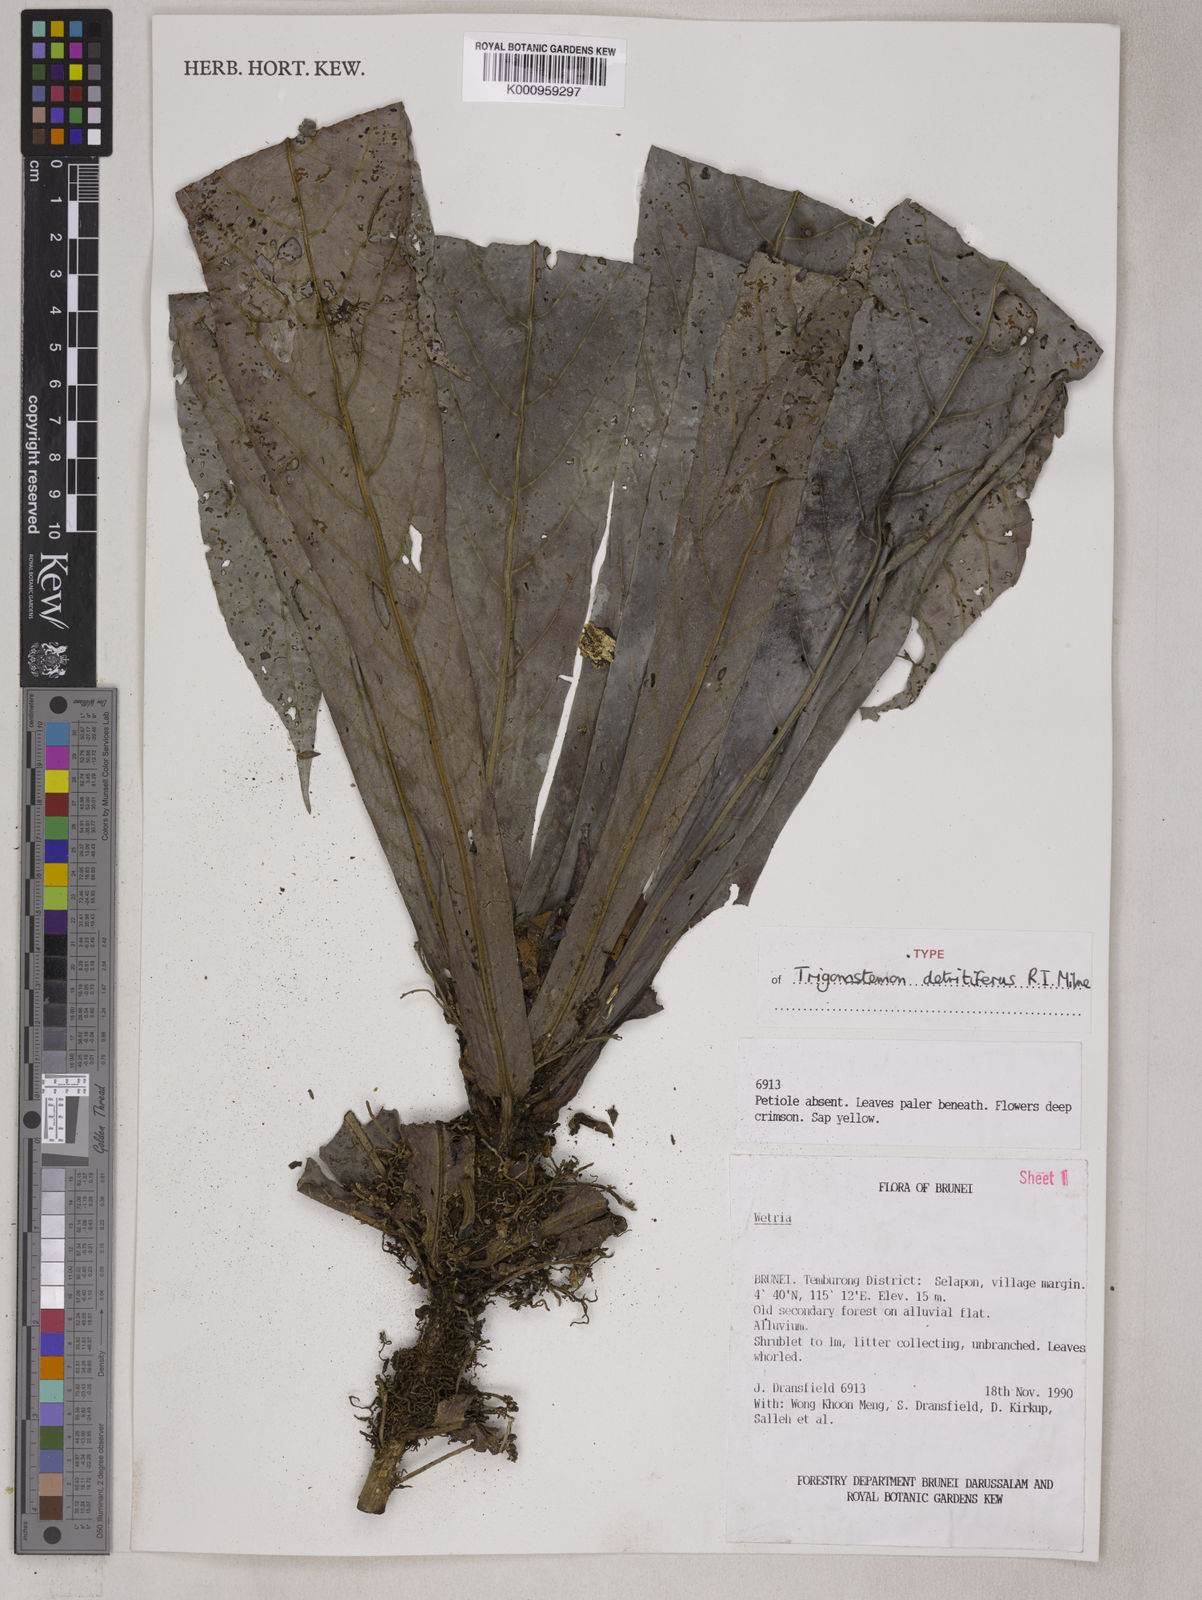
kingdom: Plantae
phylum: Tracheophyta
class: Magnoliopsida
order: Malpighiales
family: Euphorbiaceae
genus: Trigonostemon
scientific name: Trigonostemon
